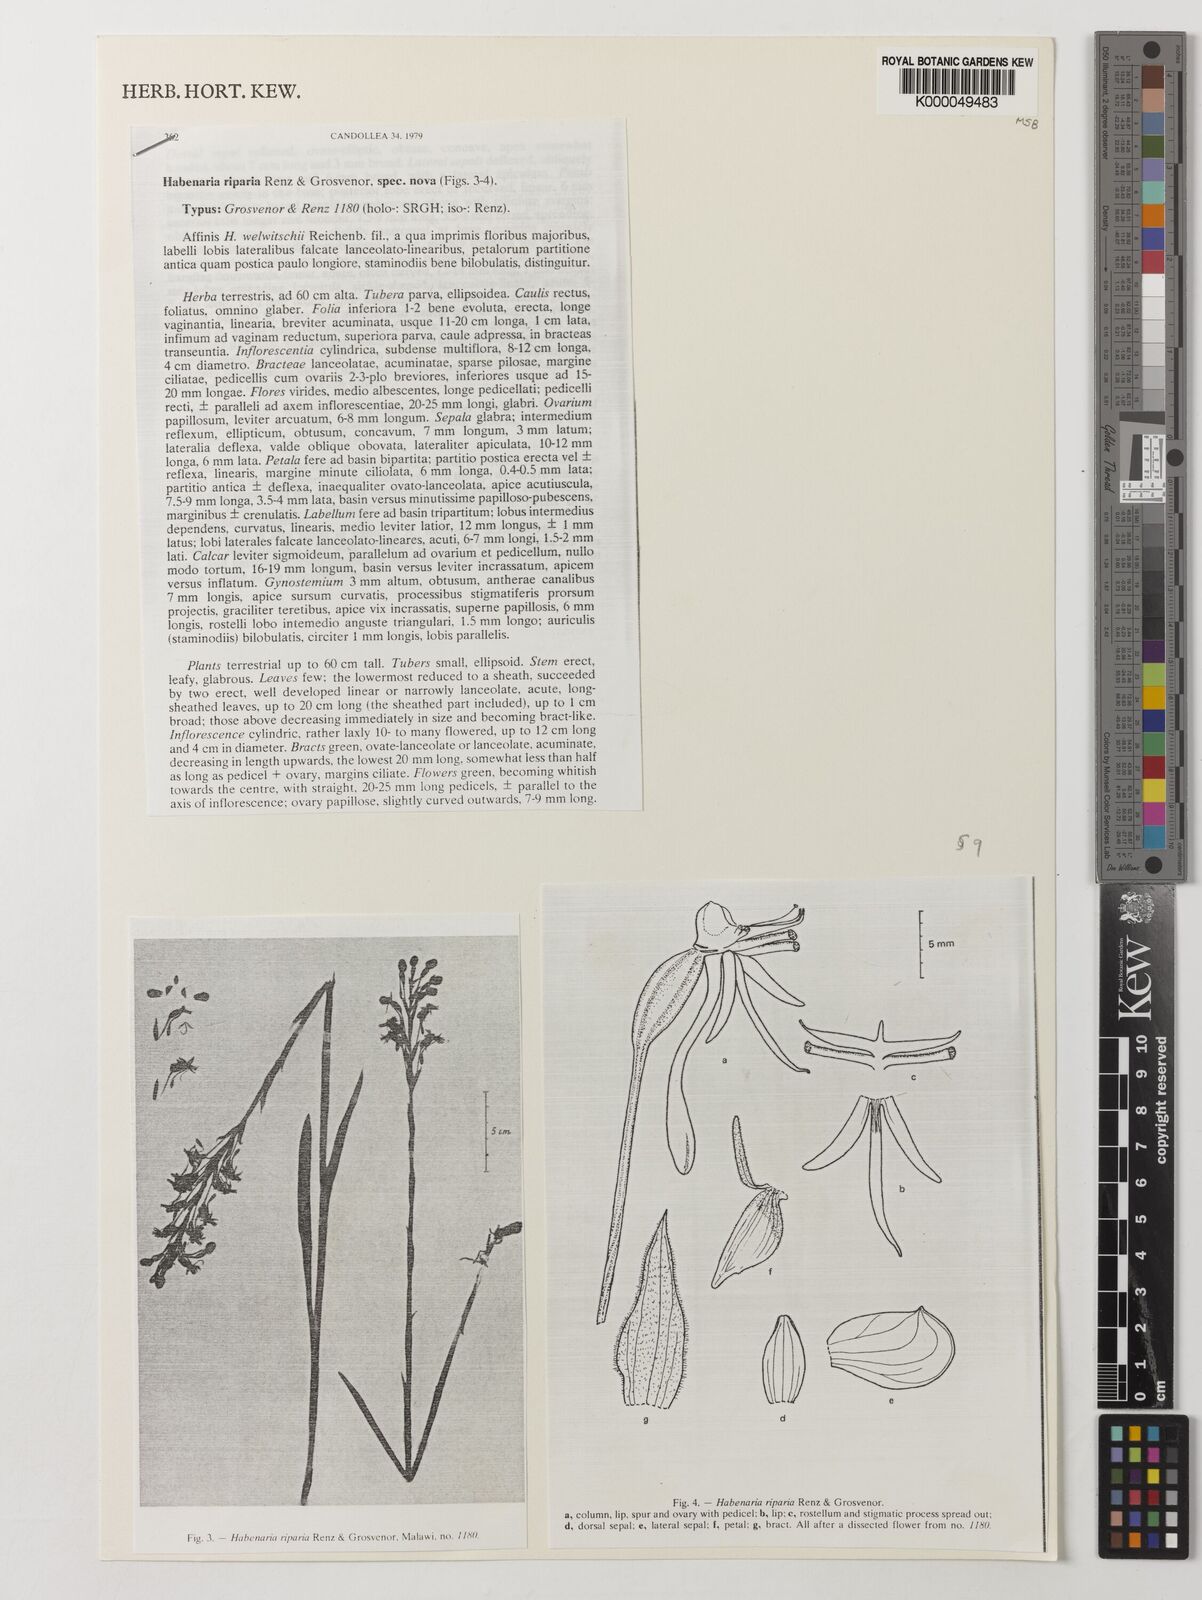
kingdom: Plantae
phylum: Tracheophyta
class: Liliopsida
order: Asparagales
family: Orchidaceae
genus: Habenaria
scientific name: Habenaria riparia
